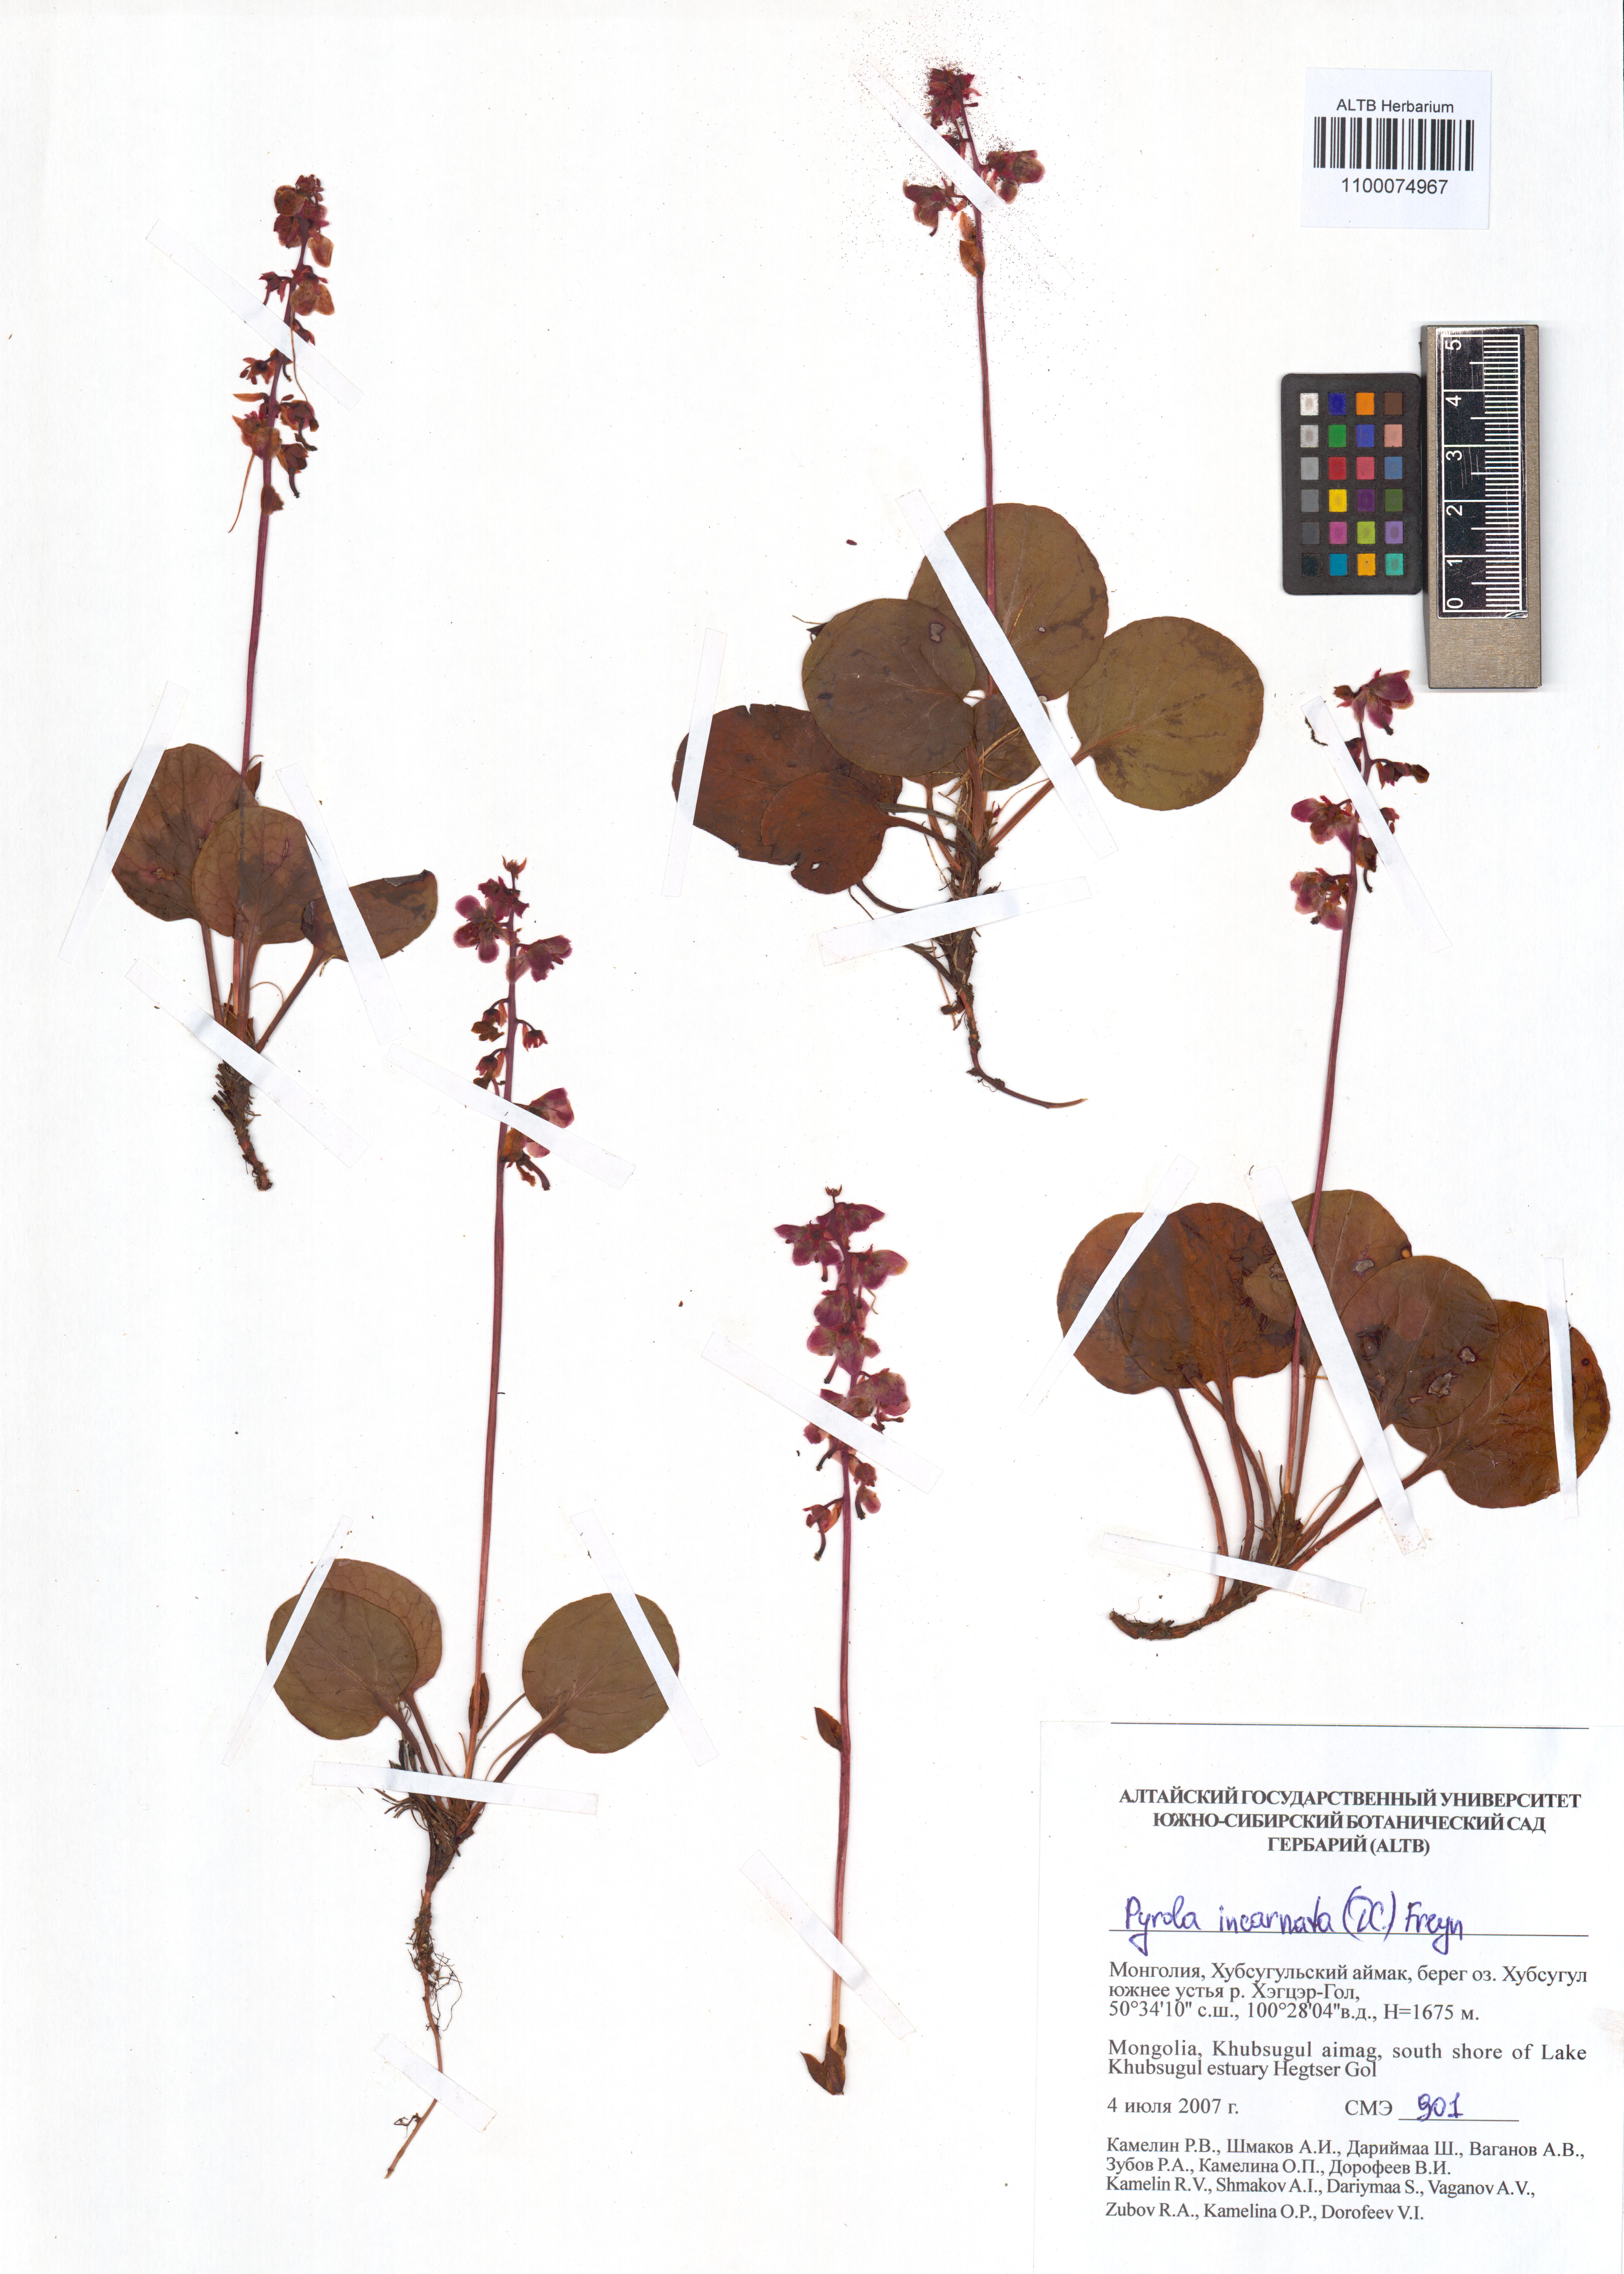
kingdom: Plantae
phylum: Tracheophyta
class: Magnoliopsida
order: Ericales
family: Ericaceae
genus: Pyrola
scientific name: Pyrola asarifolia
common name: Bog wintergreen
